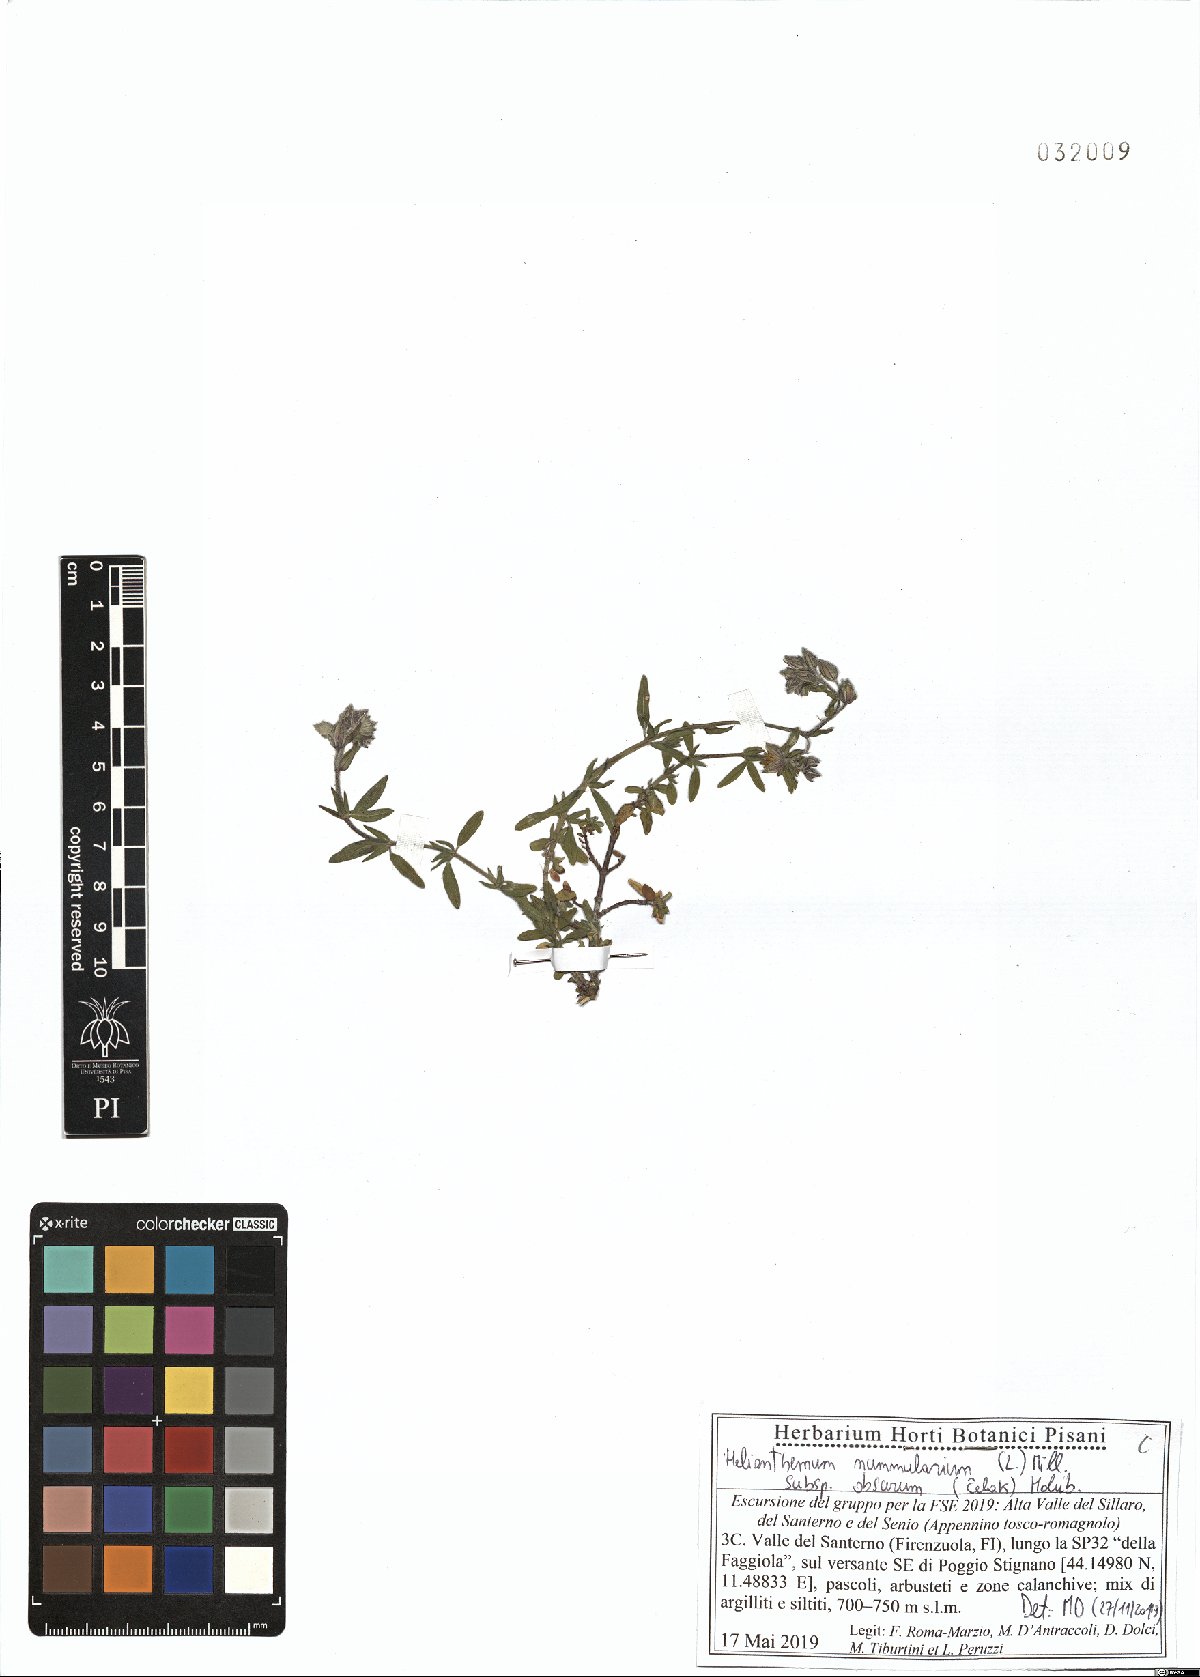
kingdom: Plantae
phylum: Tracheophyta
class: Magnoliopsida
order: Malvales
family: Cistaceae
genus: Helianthemum
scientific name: Helianthemum nummularium
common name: Common rock-rose
